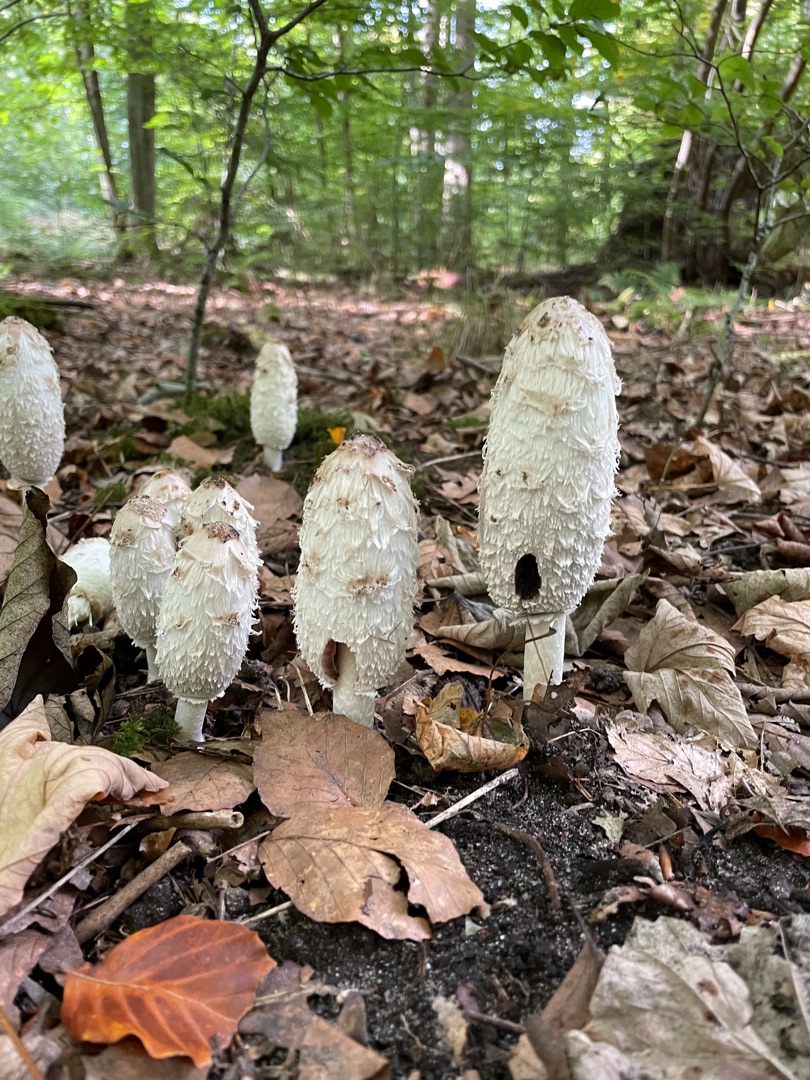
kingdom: Fungi
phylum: Basidiomycota
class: Agaricomycetes
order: Agaricales
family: Agaricaceae
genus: Coprinus
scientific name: Coprinus comatus
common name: Stor parykhat
